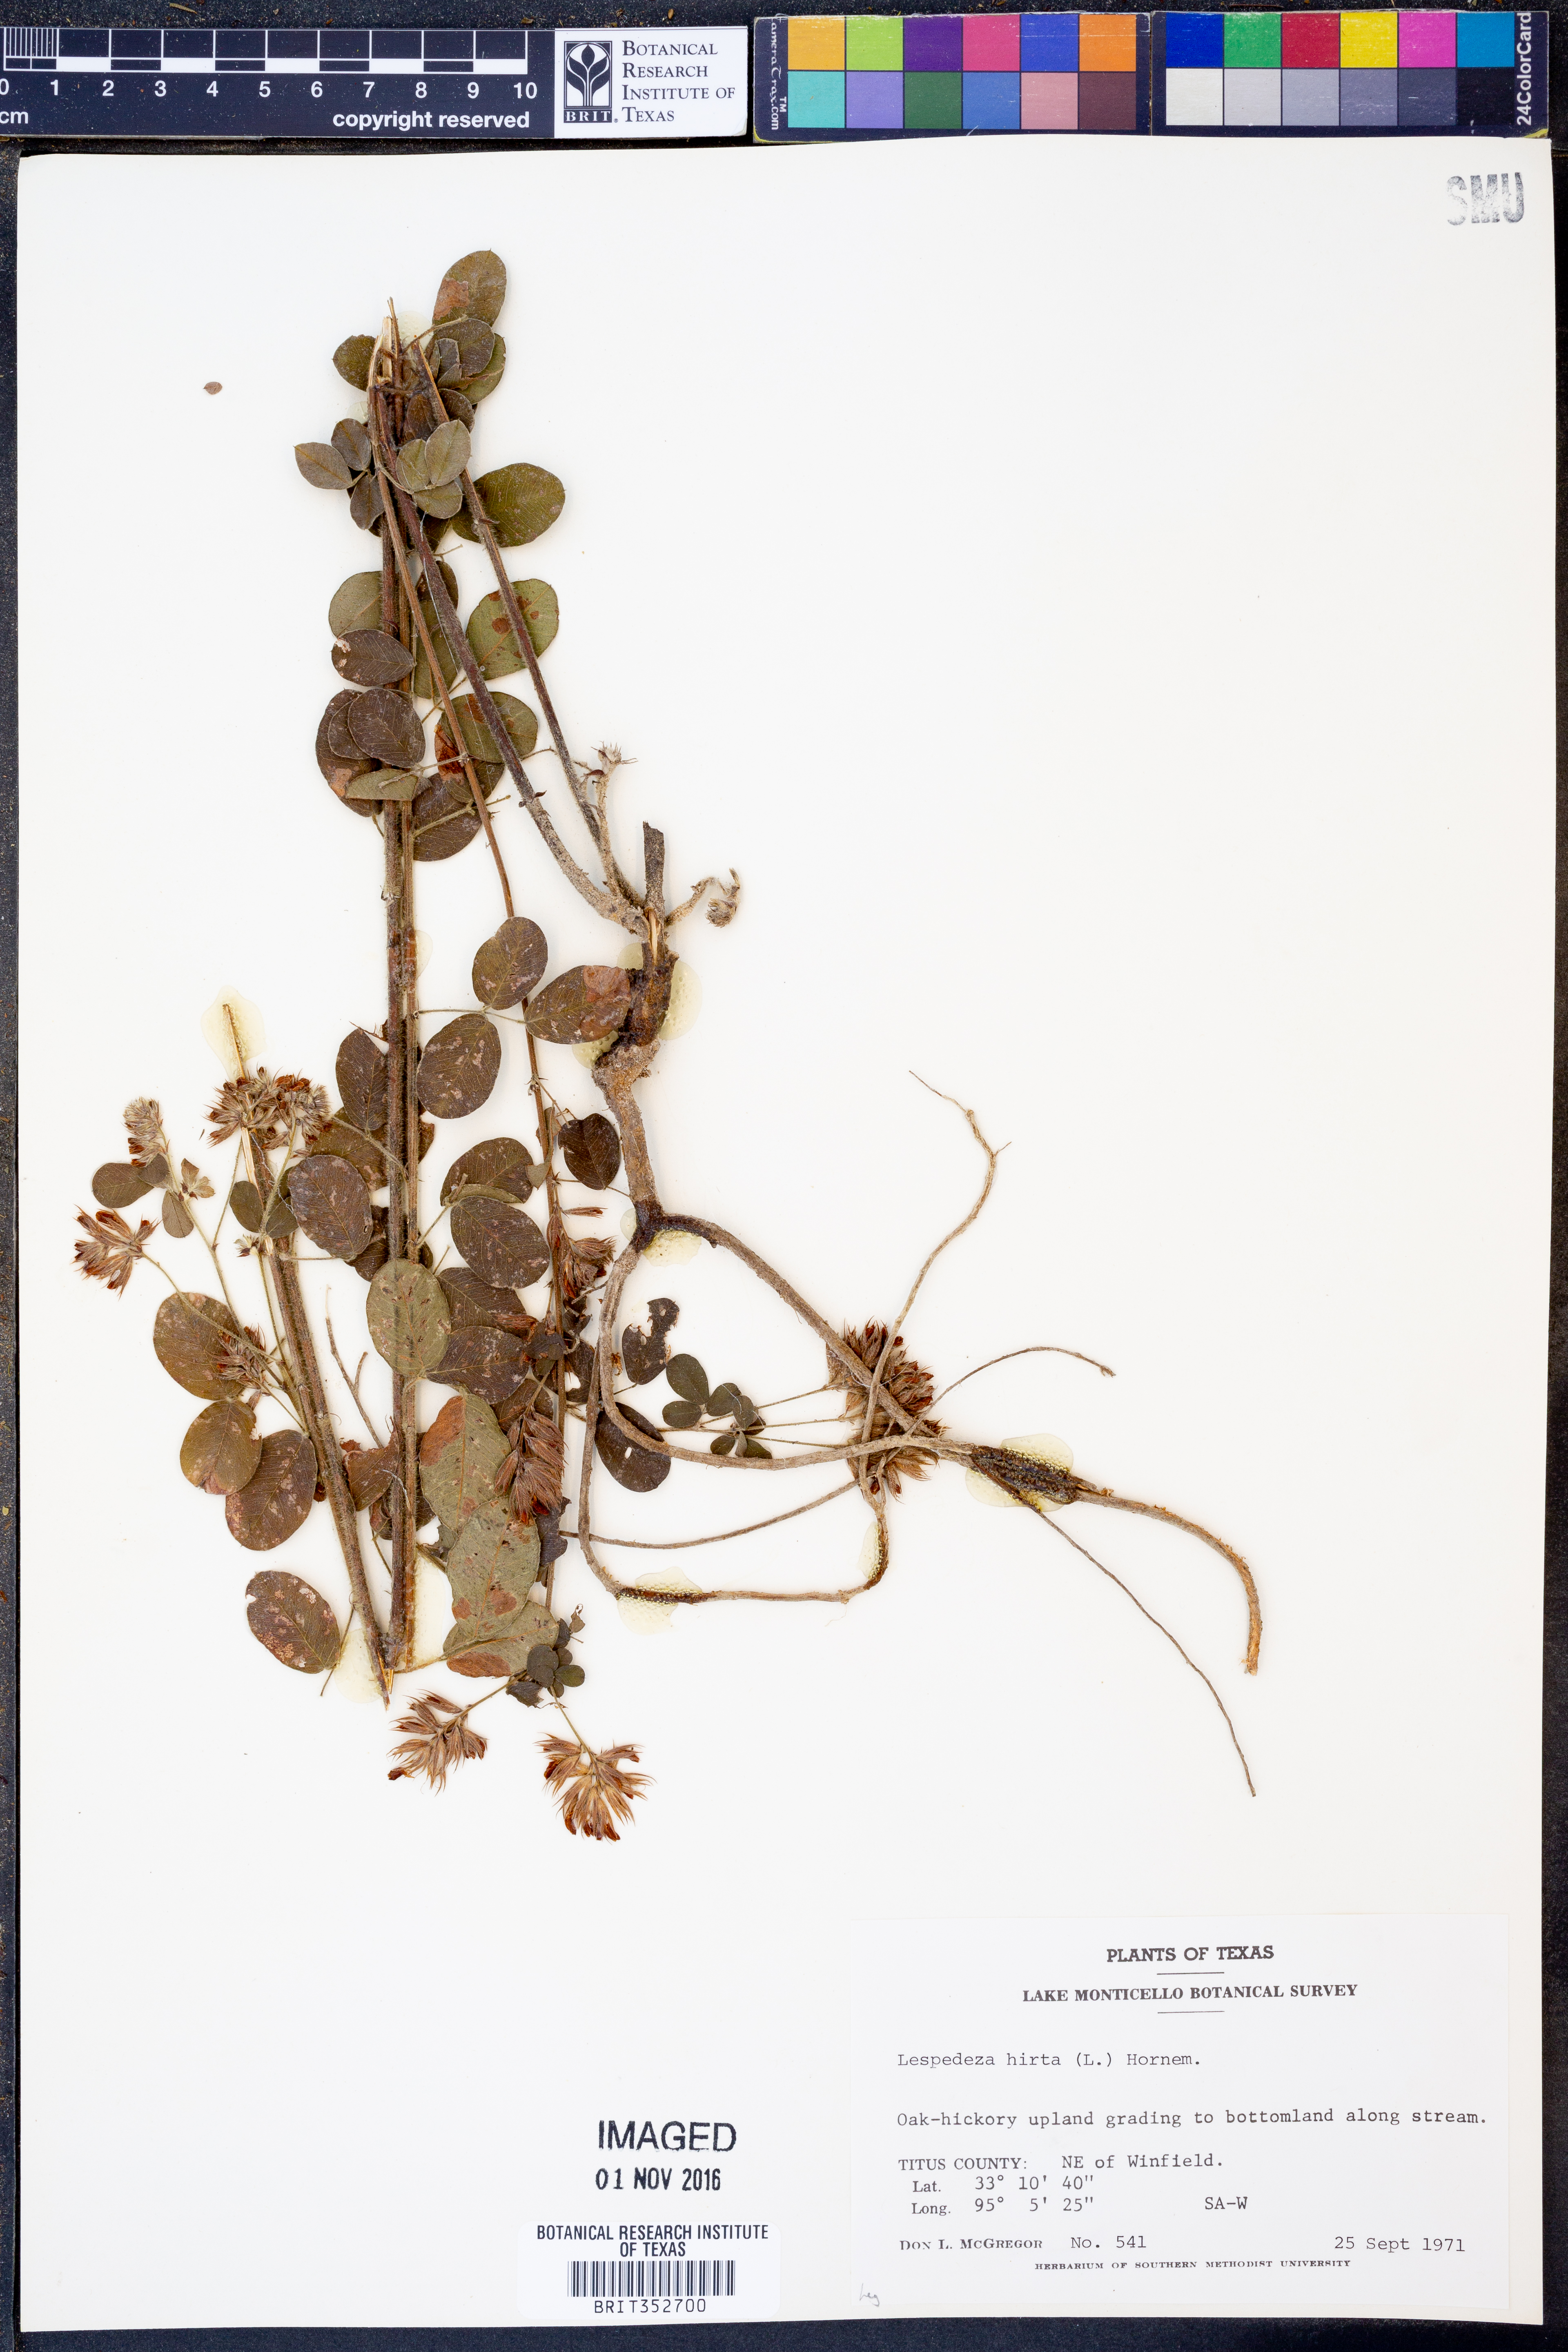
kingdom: Plantae
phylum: Tracheophyta
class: Magnoliopsida
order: Fabales
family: Fabaceae
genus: Lespedeza
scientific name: Lespedeza hirta
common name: Hairy lespedeza
